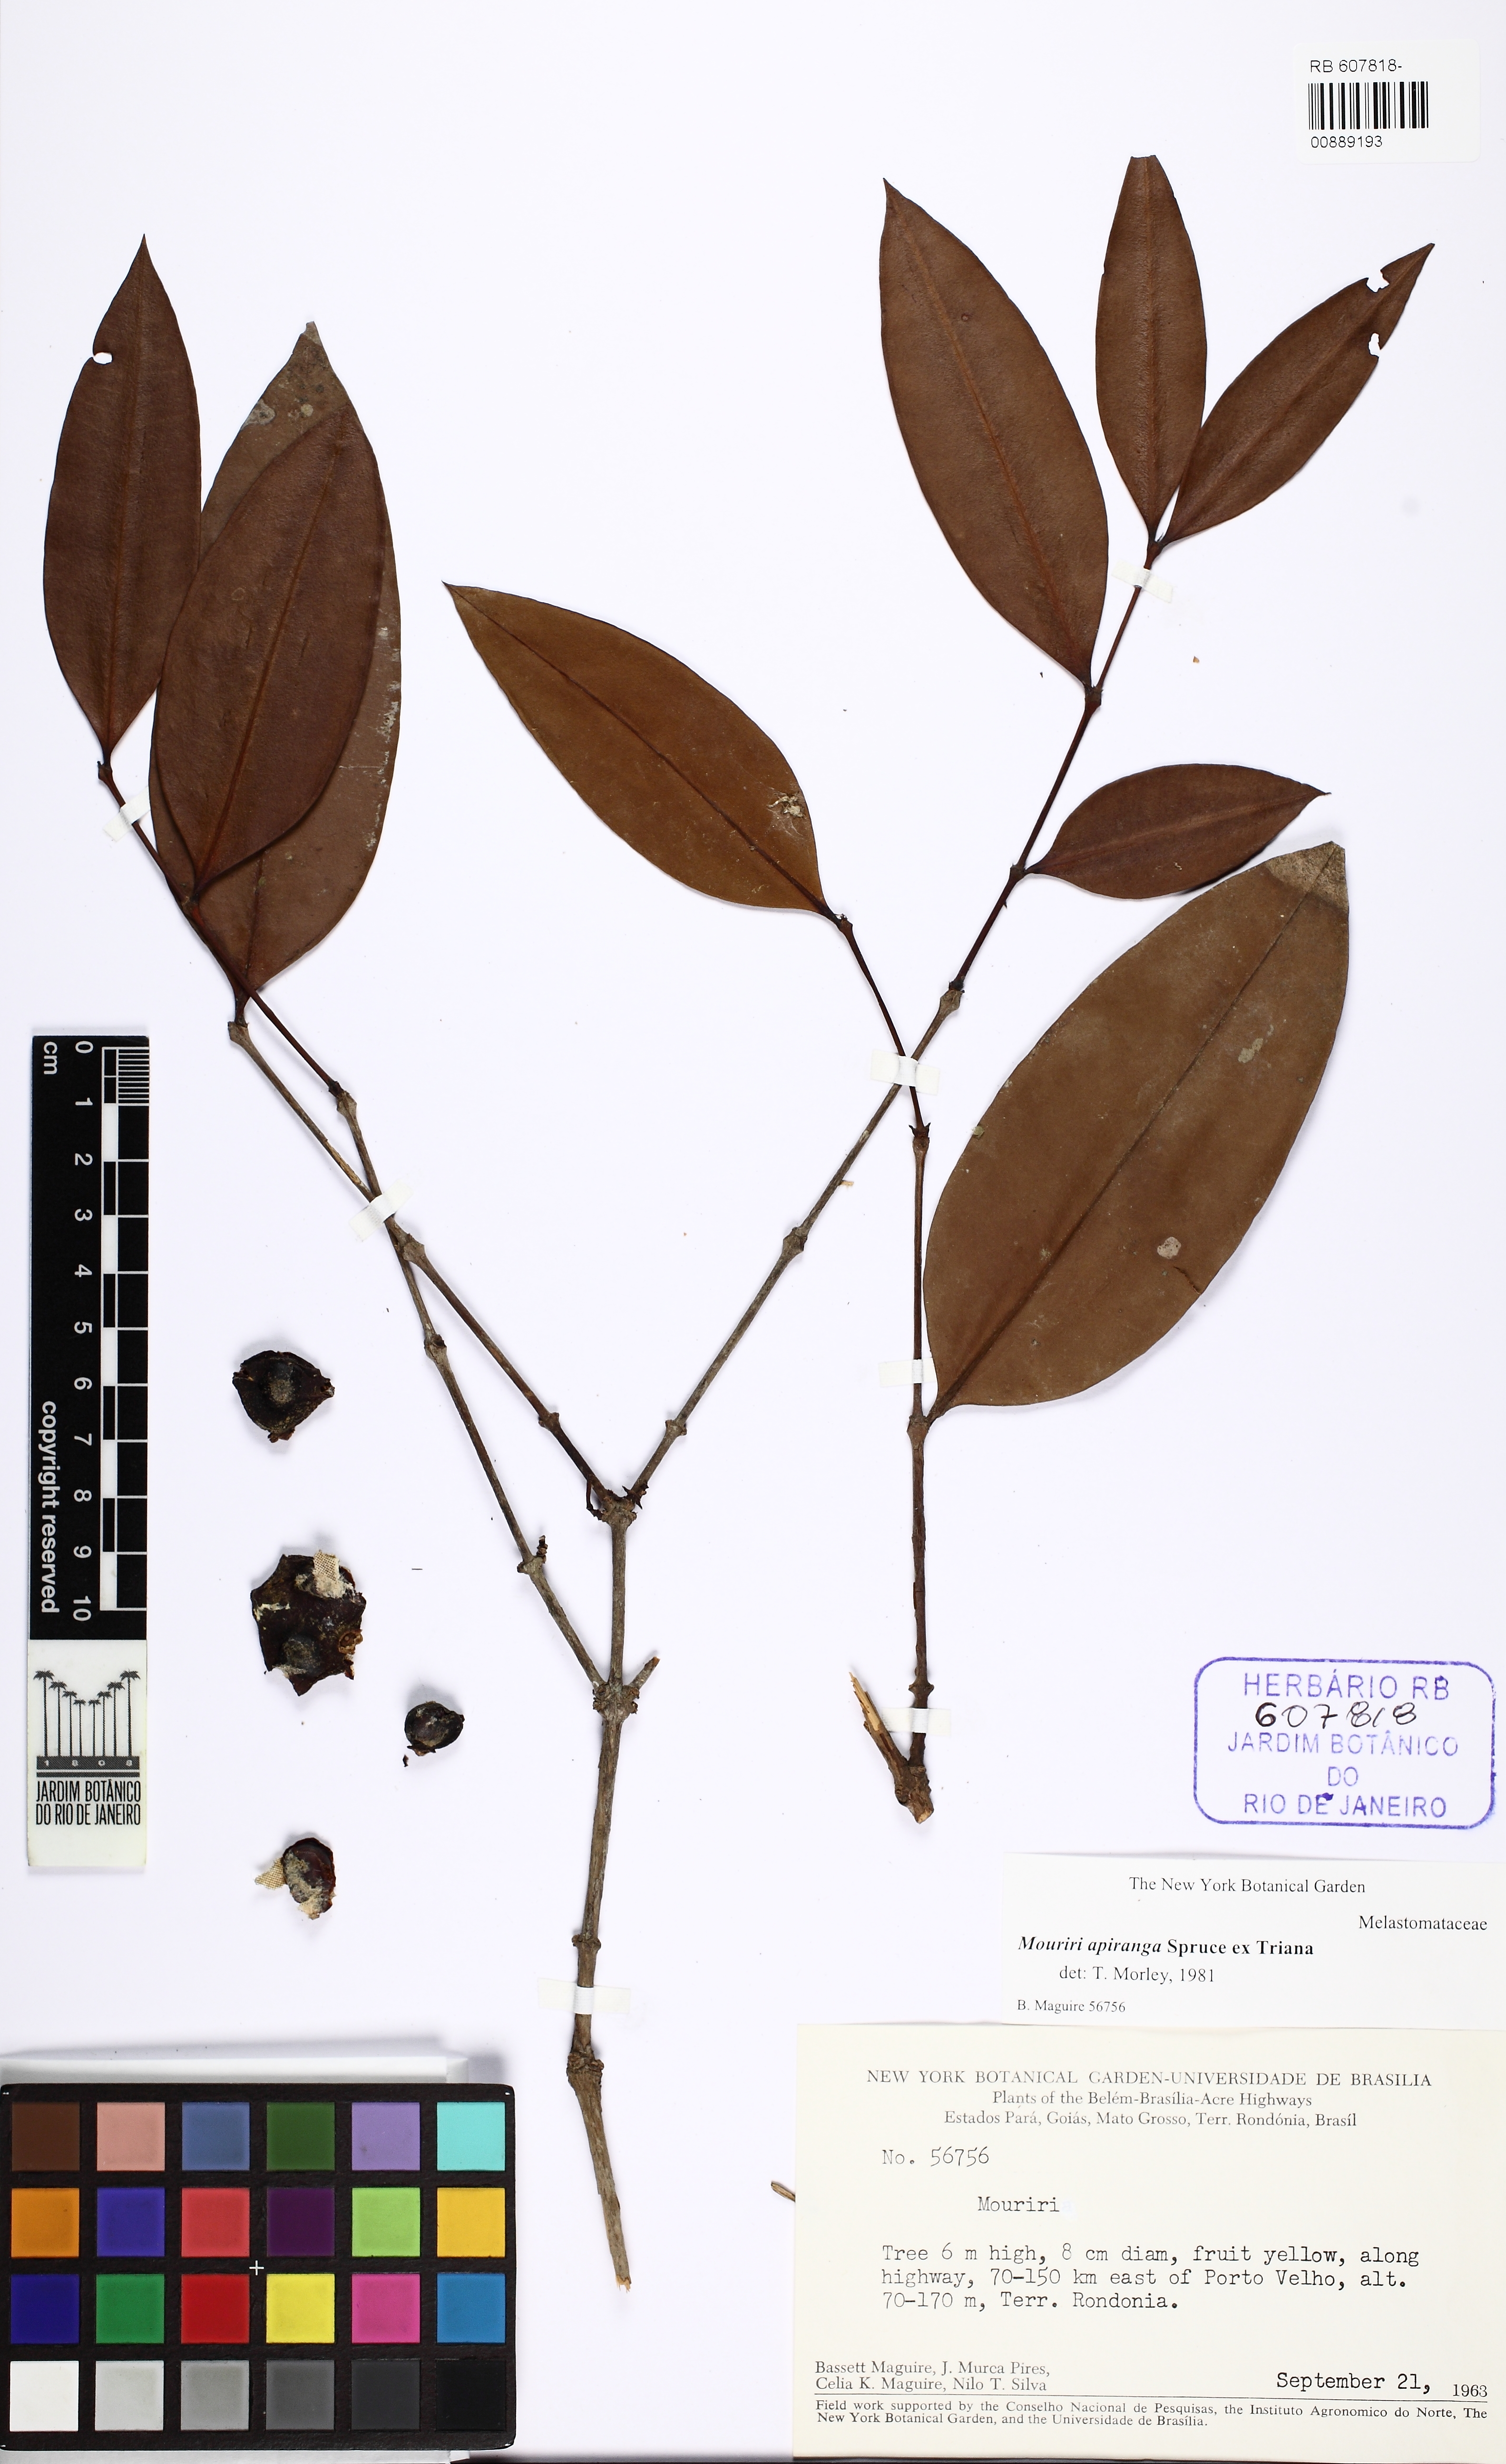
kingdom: Plantae
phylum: Tracheophyta
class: Magnoliopsida
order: Myrtales
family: Melastomataceae
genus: Mouriri
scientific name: Mouriri apiranga
